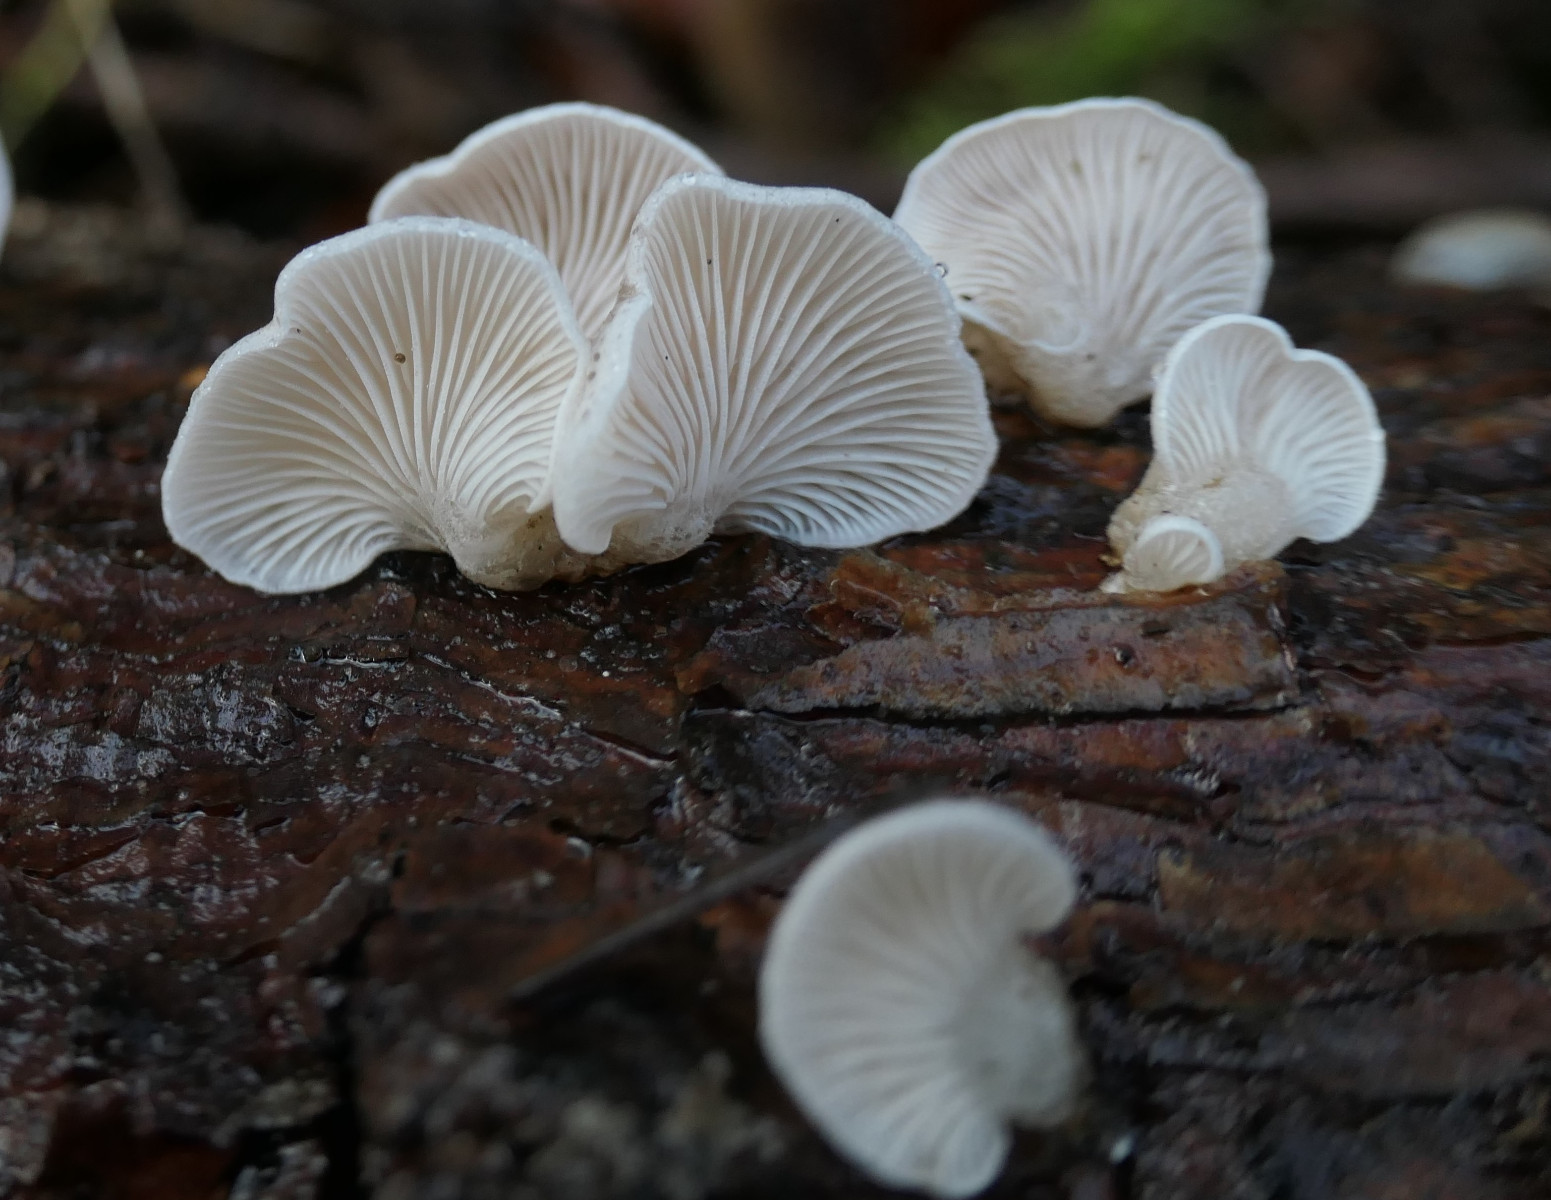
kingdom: Fungi
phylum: Basidiomycota
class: Agaricomycetes
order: Agaricales
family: Mycenaceae
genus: Panellus
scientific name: Panellus mitis
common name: mild epaulethat
